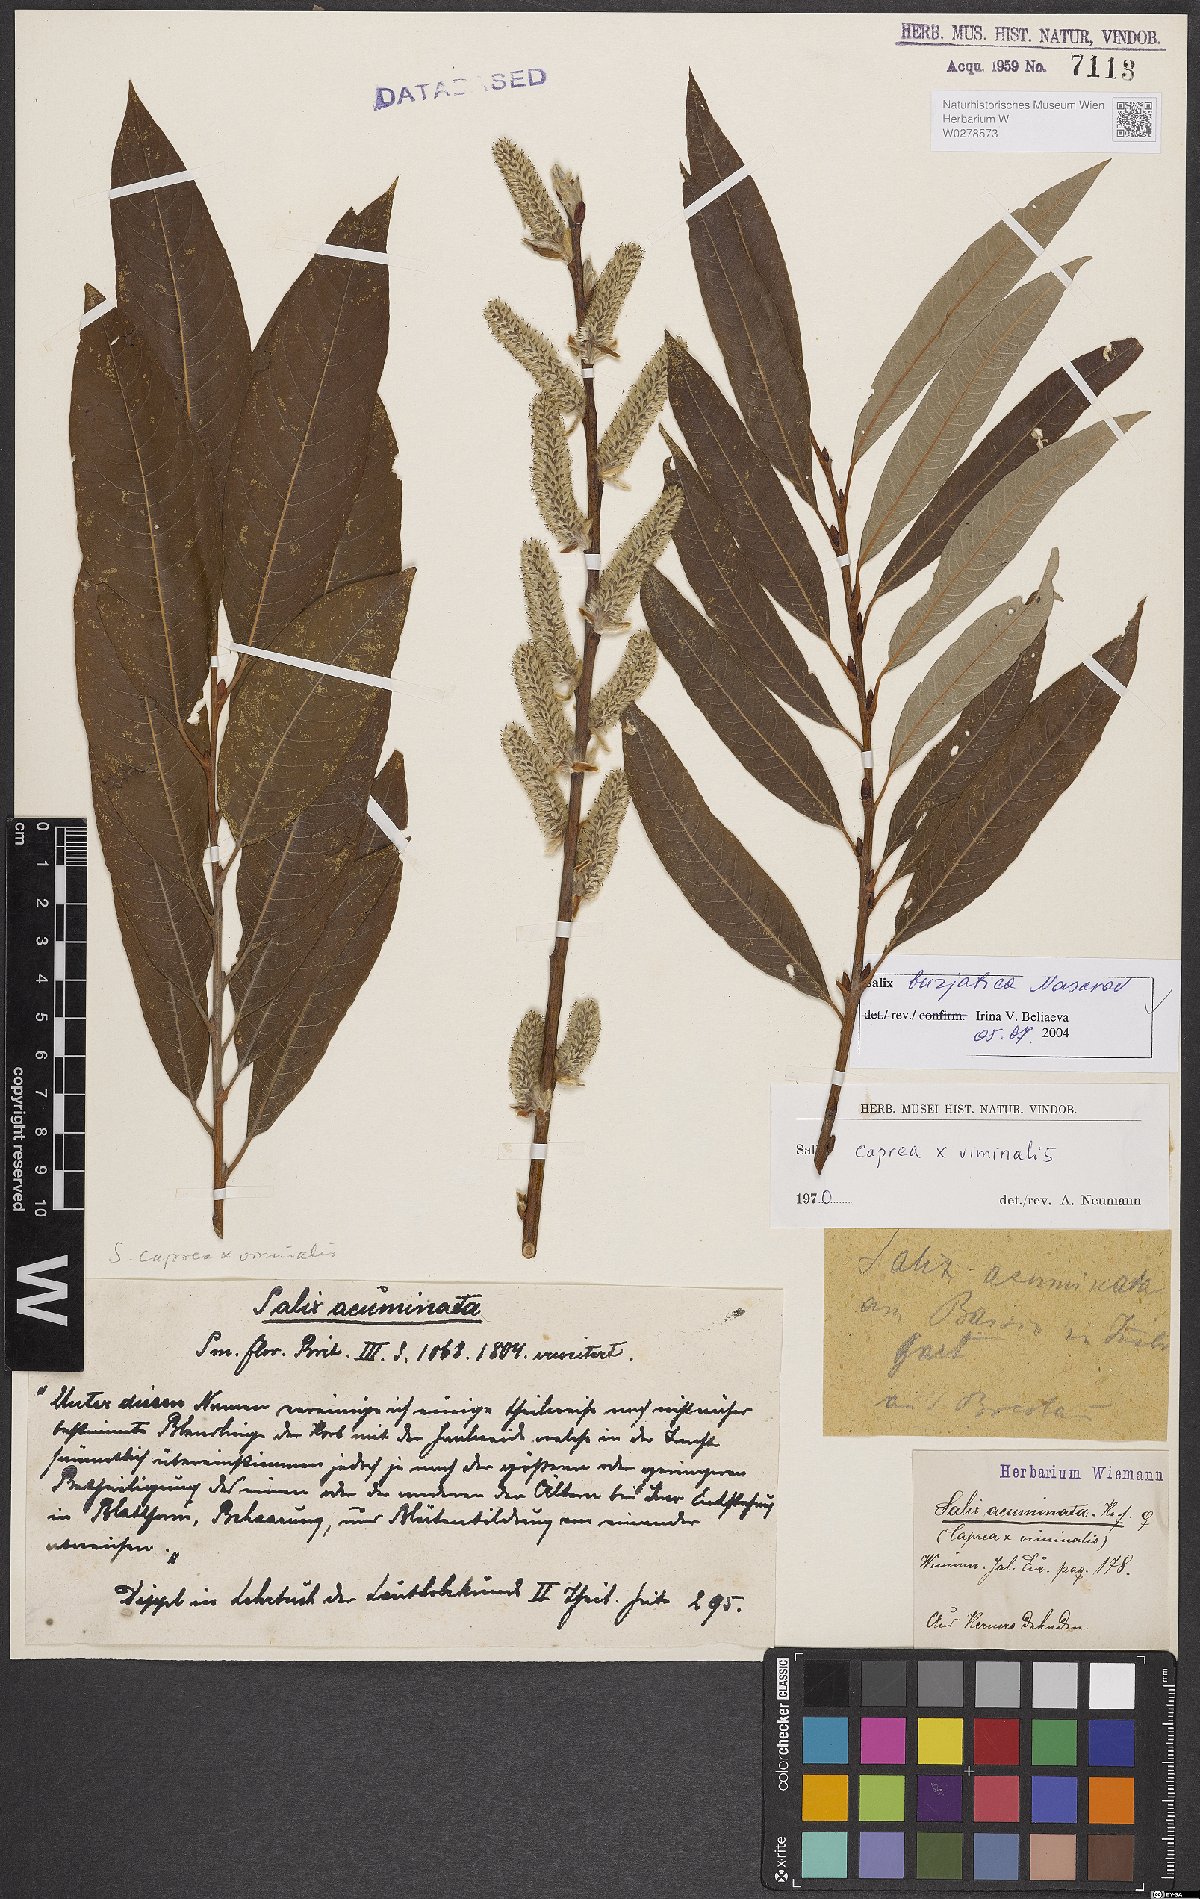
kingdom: Plantae
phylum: Tracheophyta
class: Magnoliopsida
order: Malpighiales
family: Salicaceae
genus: Salix
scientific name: Salix gmelinii
